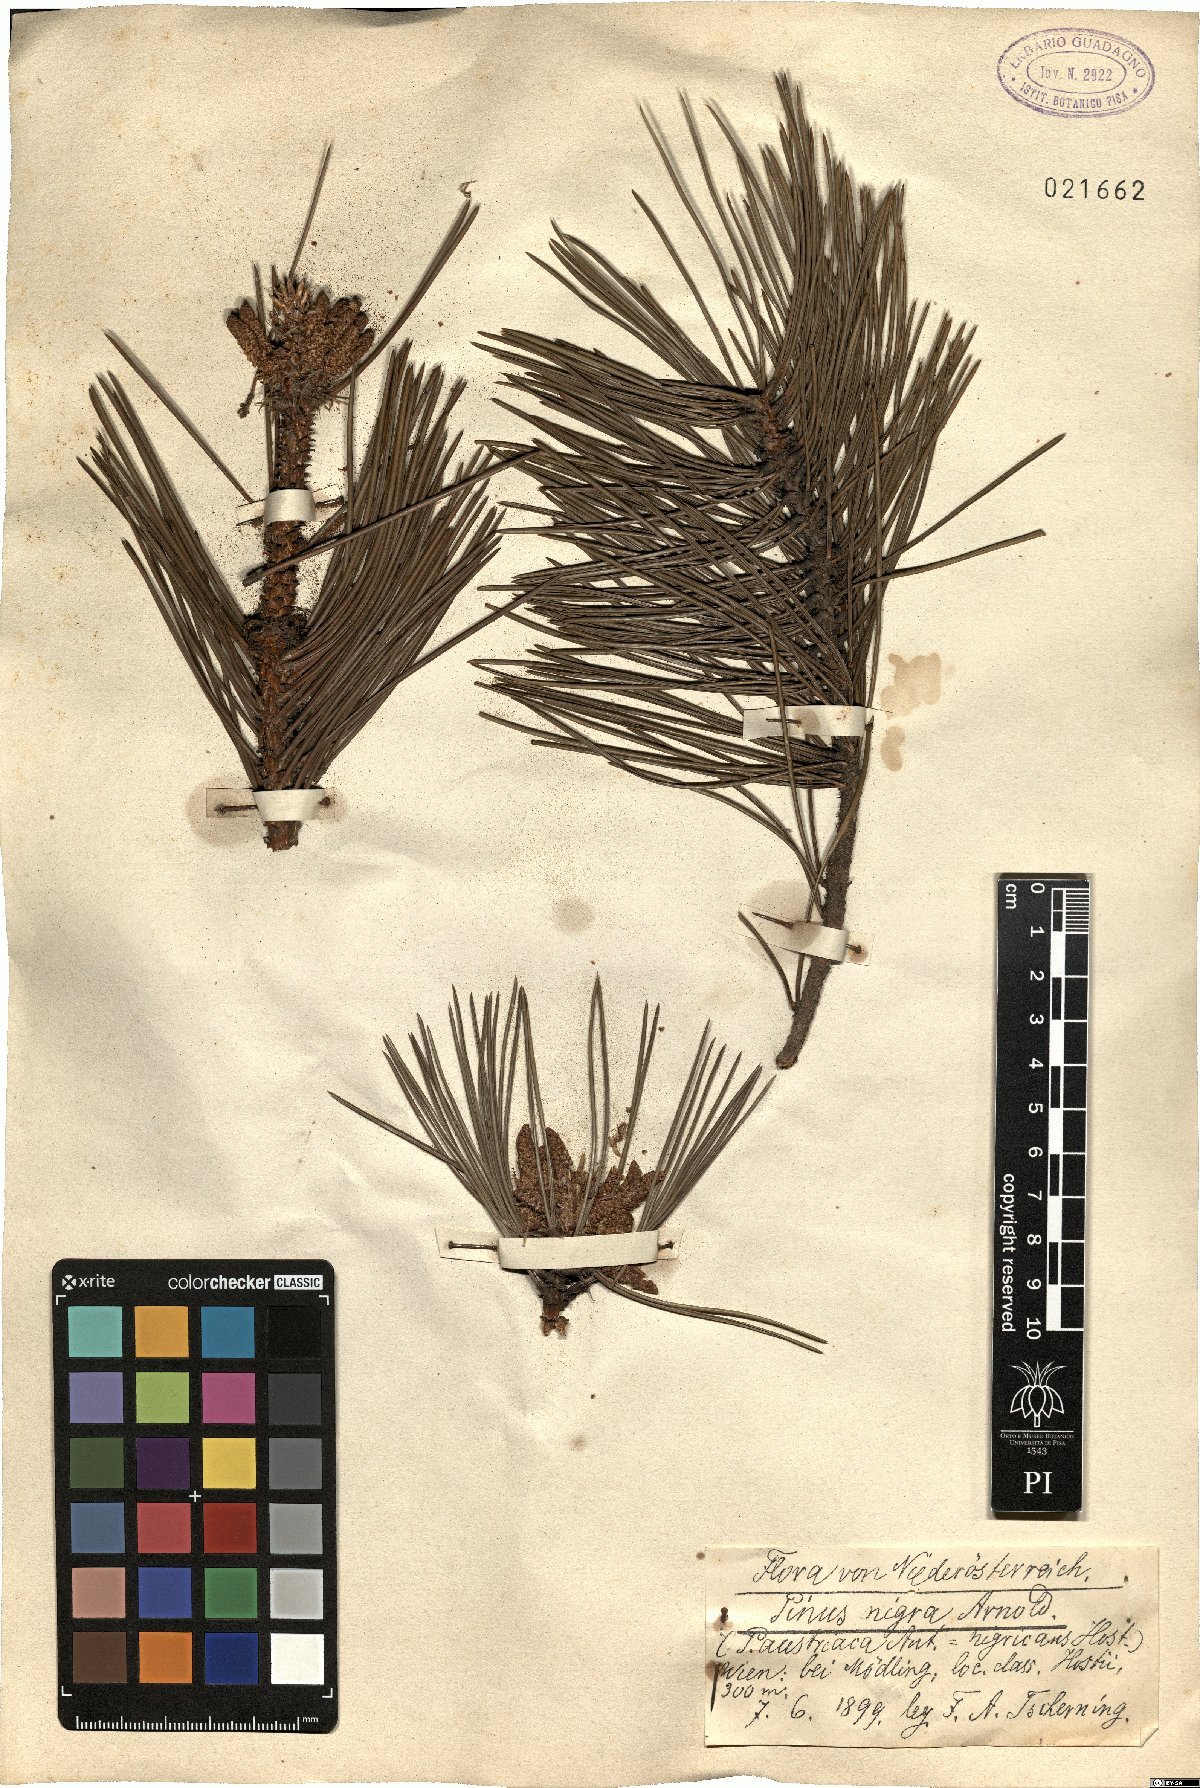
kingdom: Plantae
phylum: Tracheophyta
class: Pinopsida
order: Pinales
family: Pinaceae
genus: Pinus
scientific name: Pinus nigra
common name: Austrian pine
